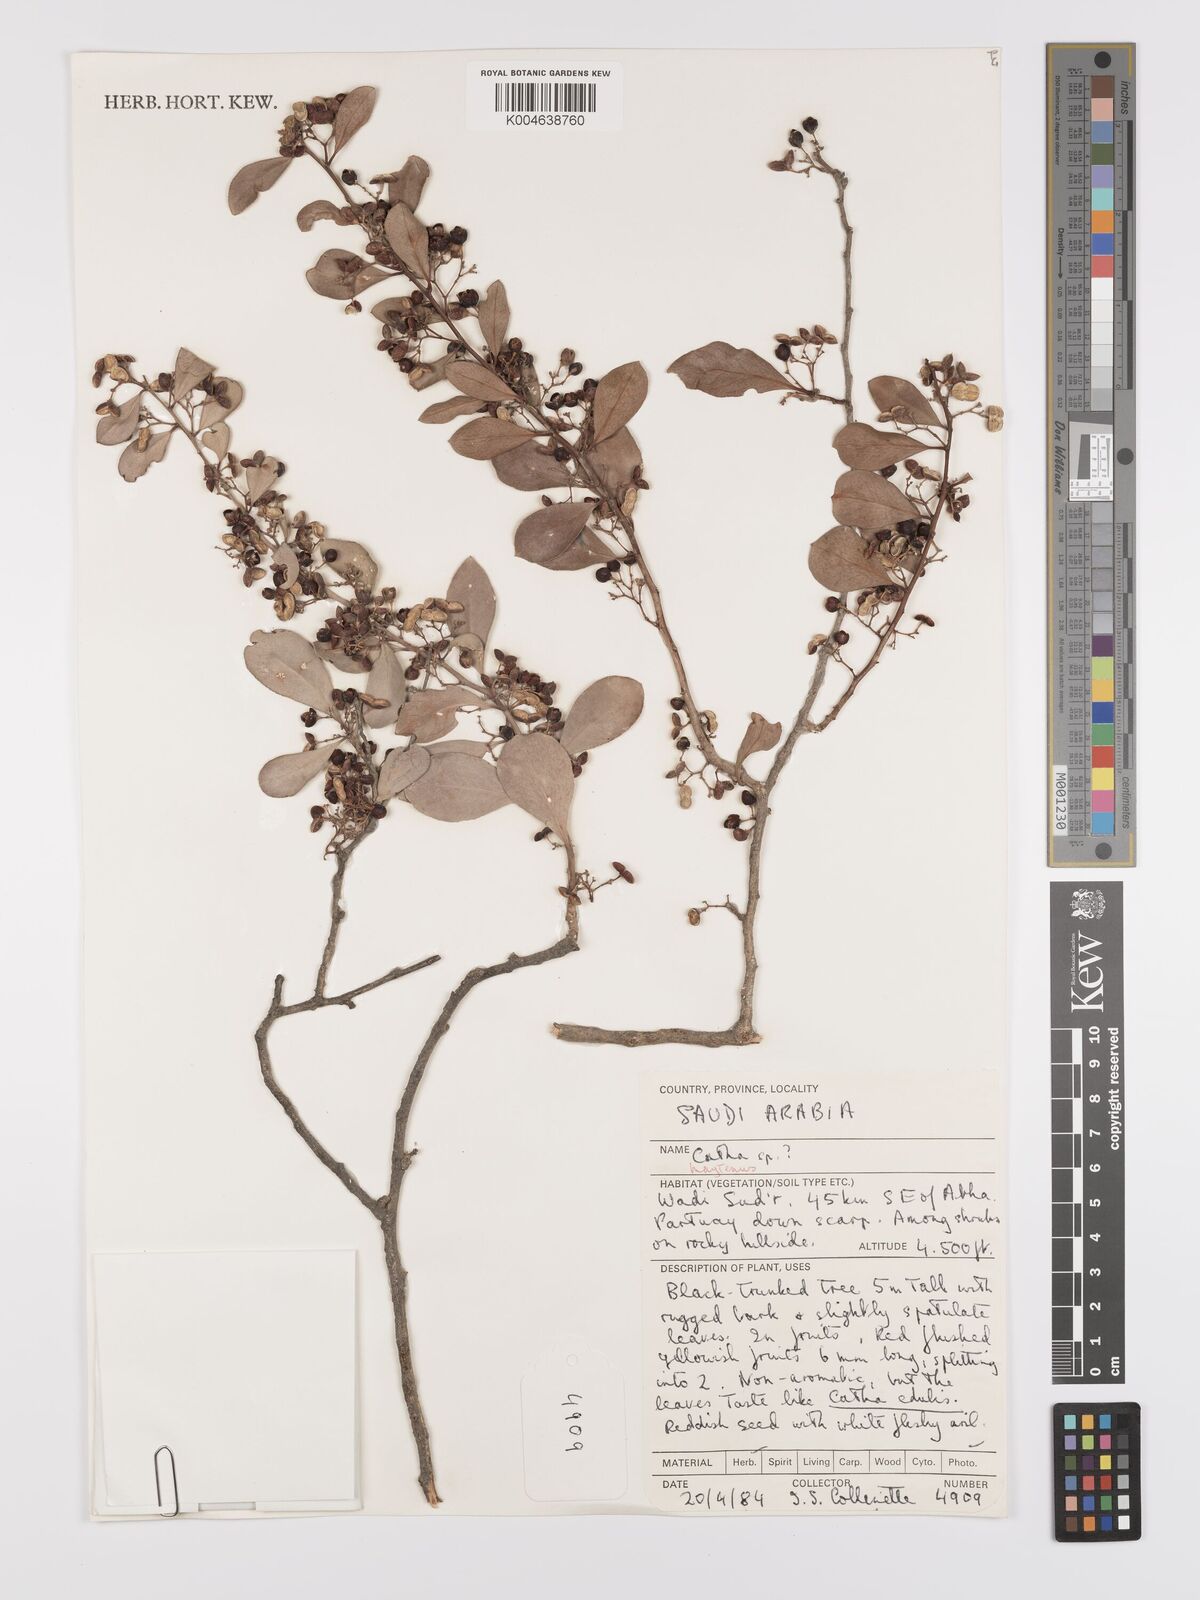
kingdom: Plantae
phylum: Tracheophyta
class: Magnoliopsida
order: Celastrales
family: Celastraceae
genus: Gymnosporia
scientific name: Gymnosporia senegalensis
